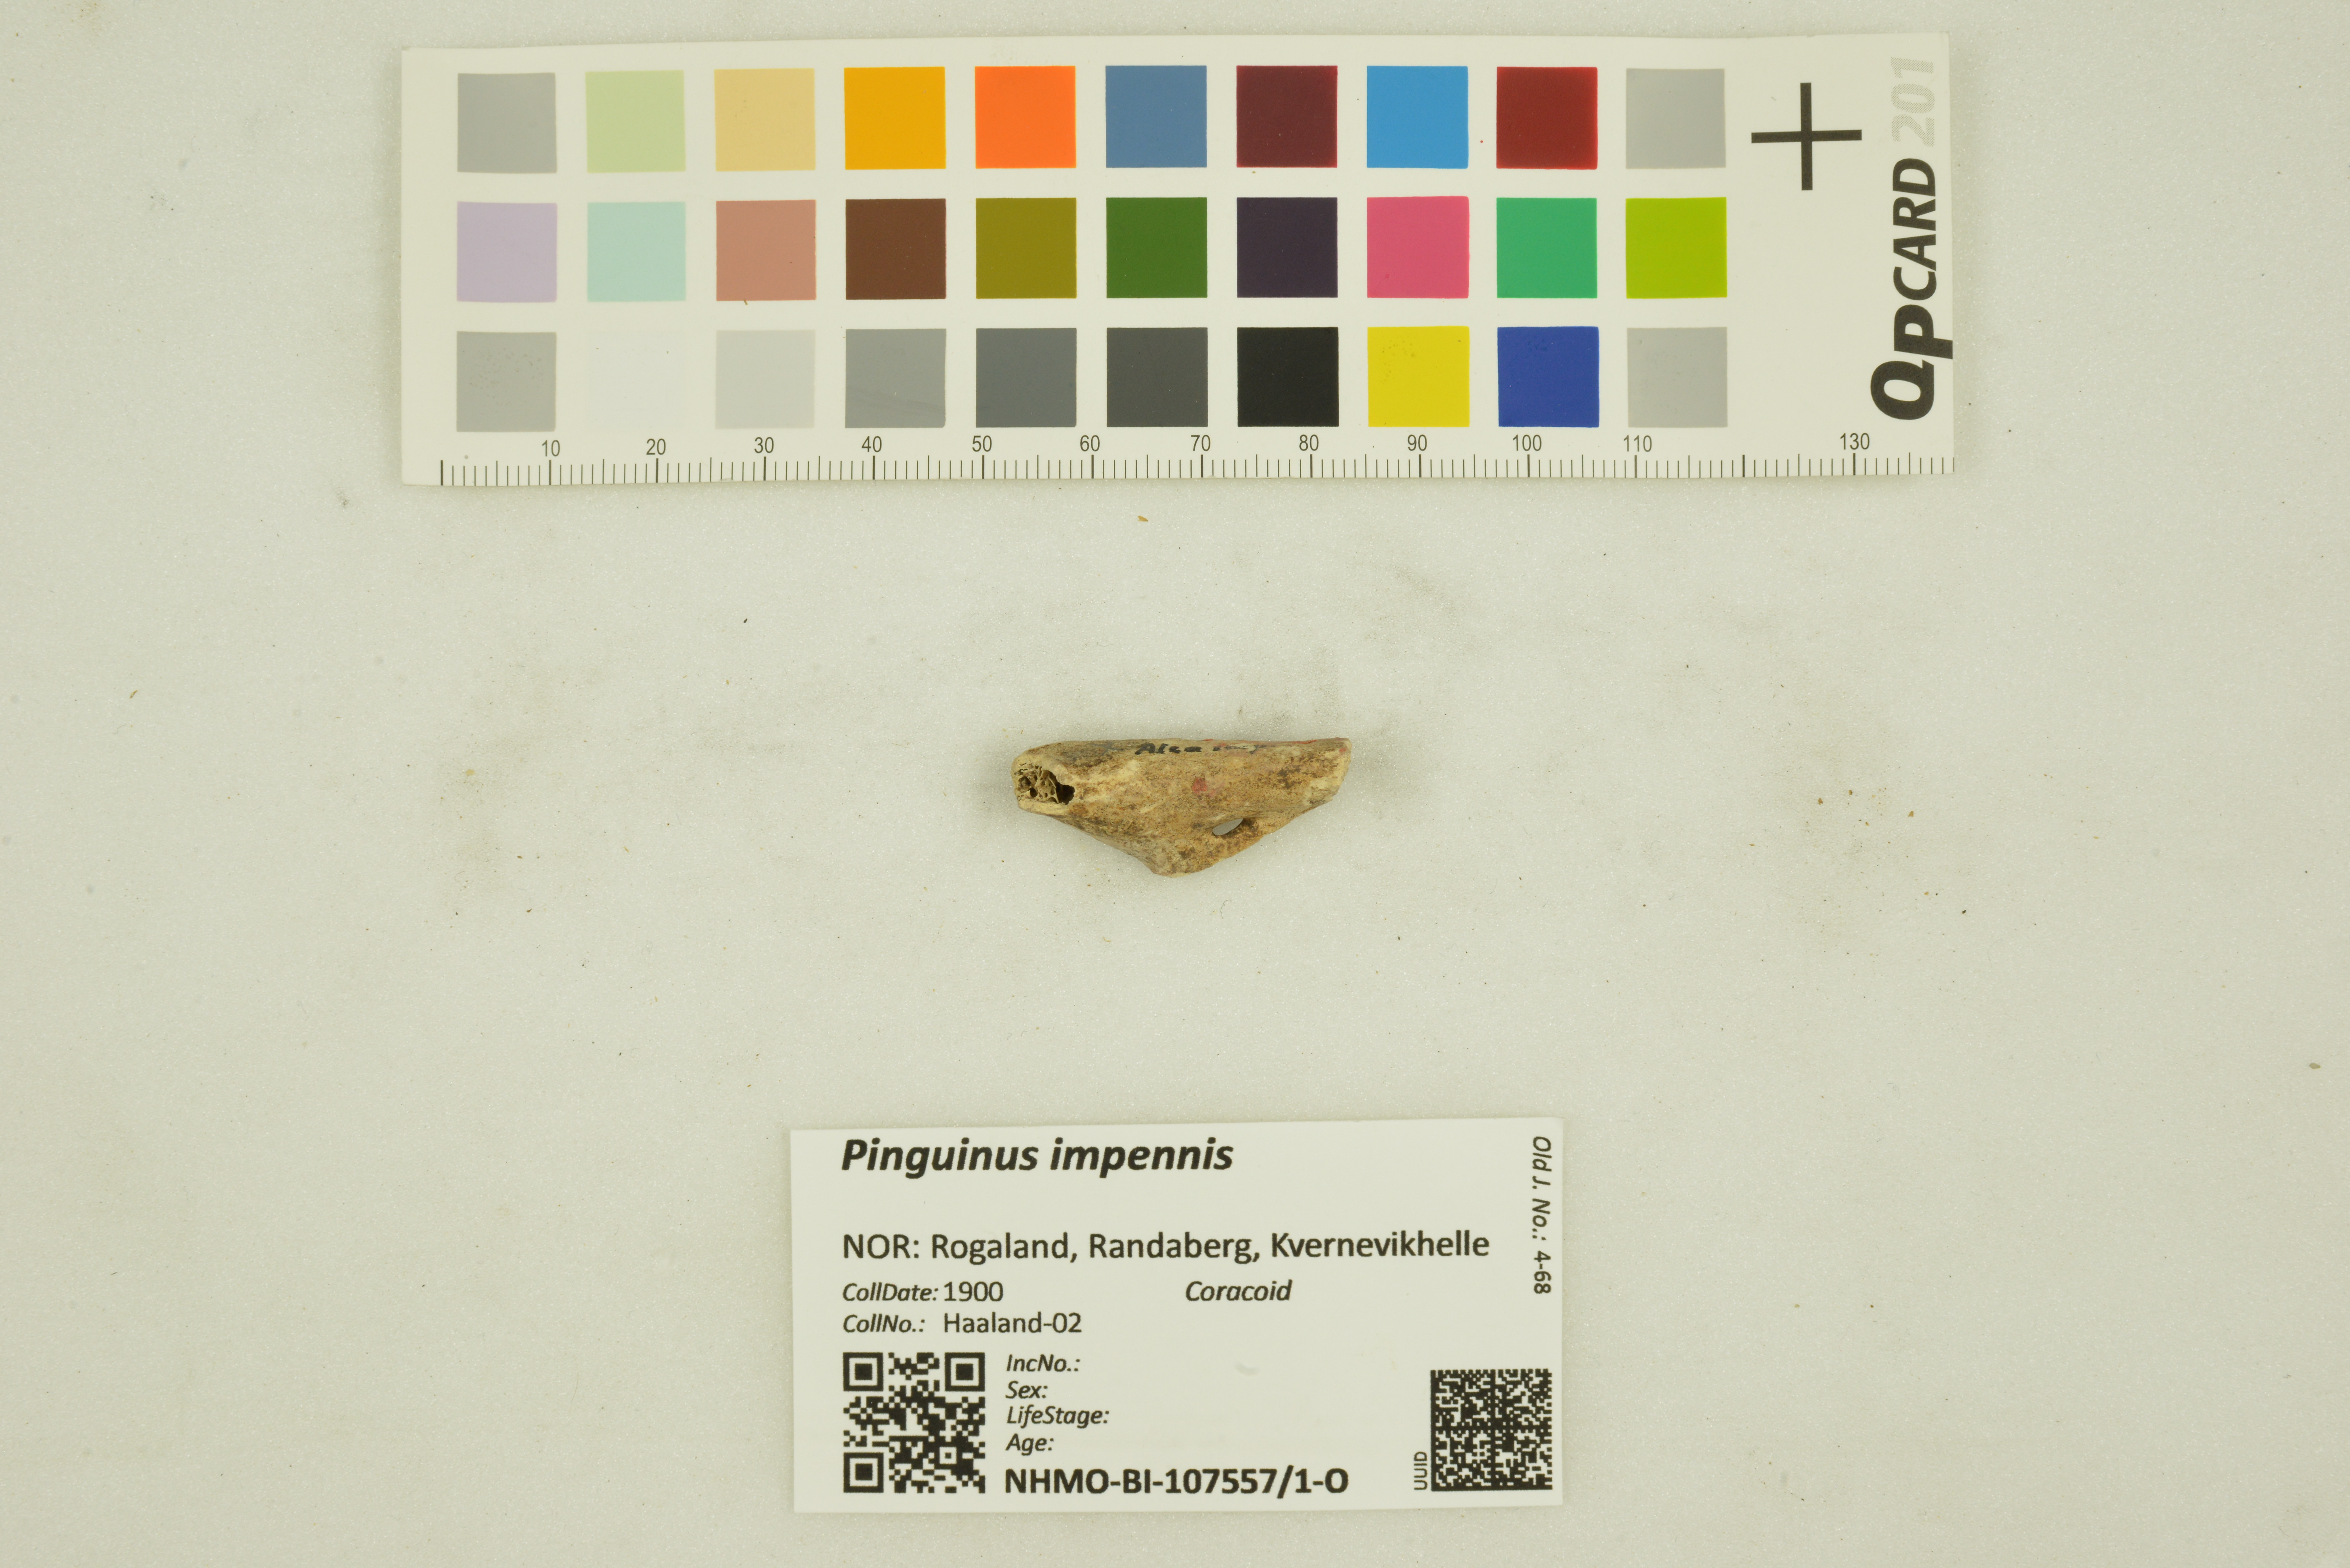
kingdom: Animalia
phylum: Chordata
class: Aves
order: Charadriiformes
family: Alcidae
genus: Pinguinus
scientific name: Pinguinus impennis
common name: Great auk
